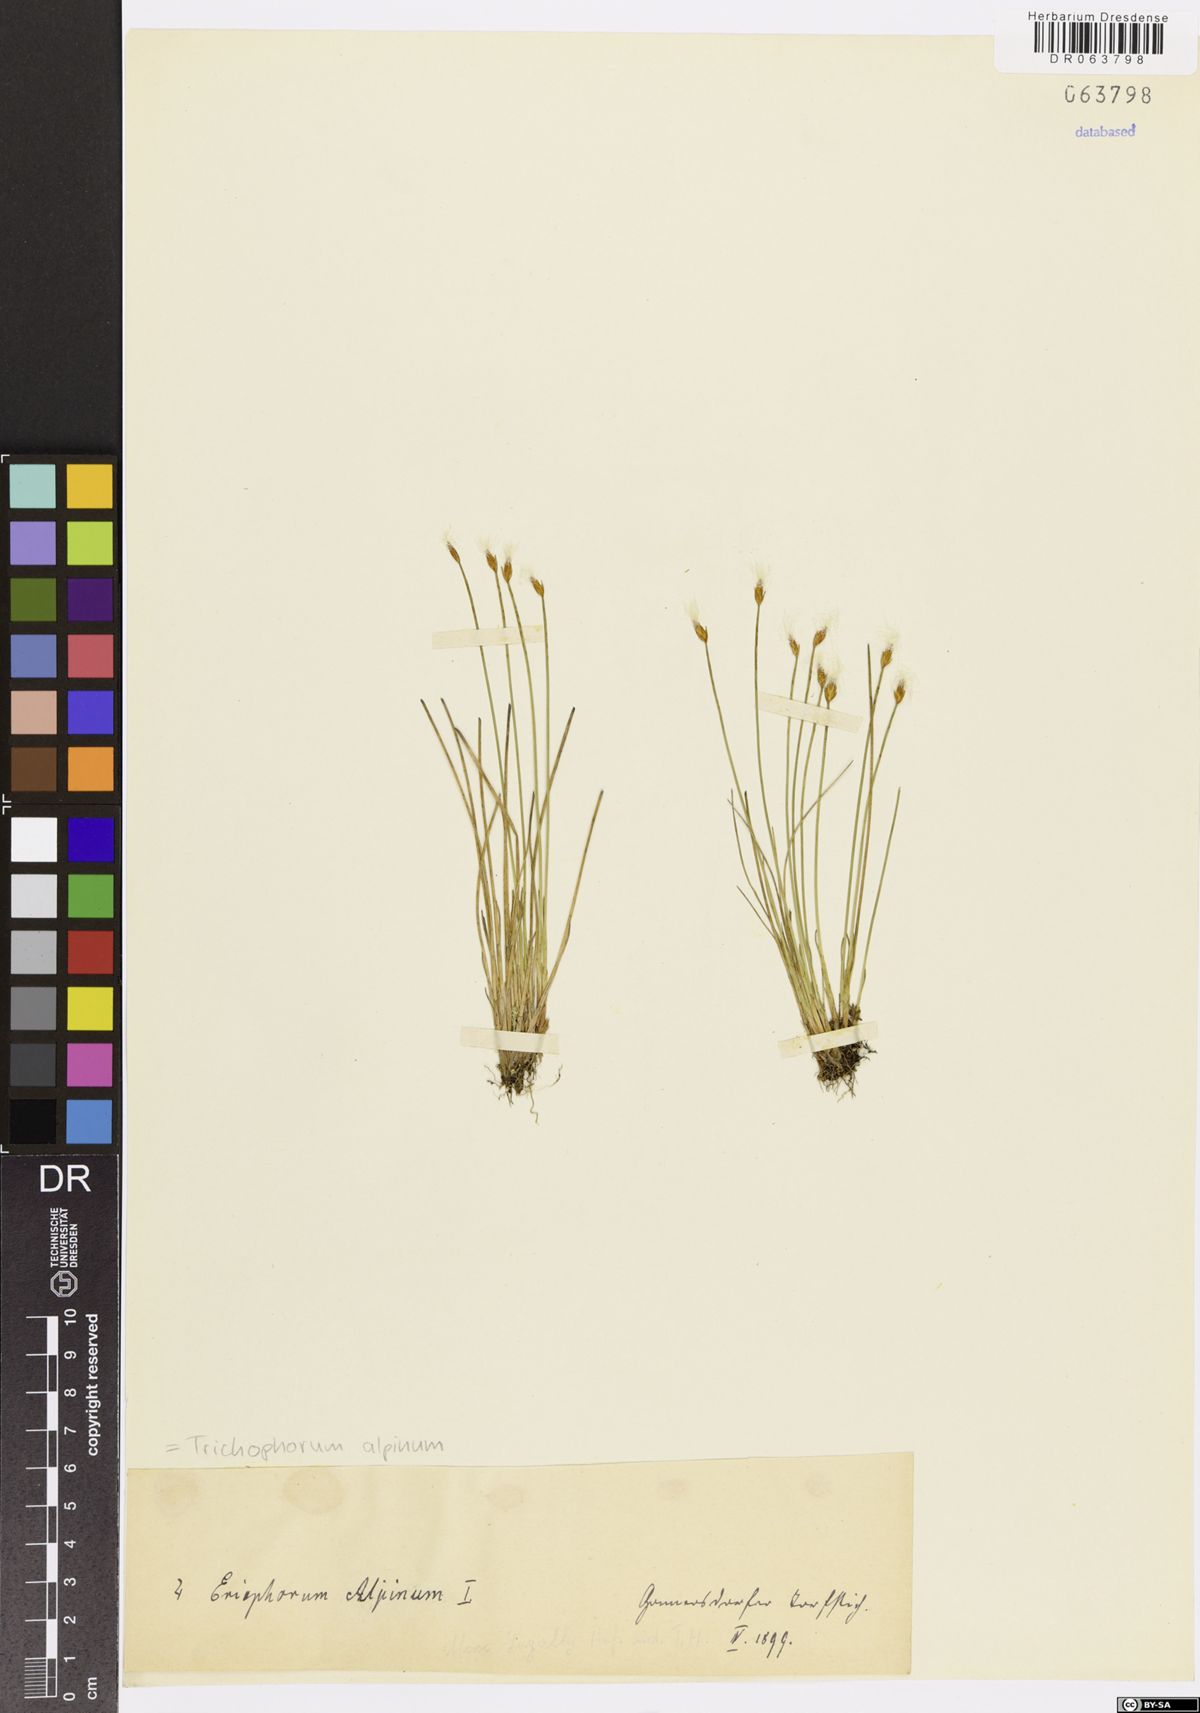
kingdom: Plantae
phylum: Tracheophyta
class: Liliopsida
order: Poales
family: Cyperaceae
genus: Trichophorum
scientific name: Trichophorum alpinum
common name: Alpine bulrush
